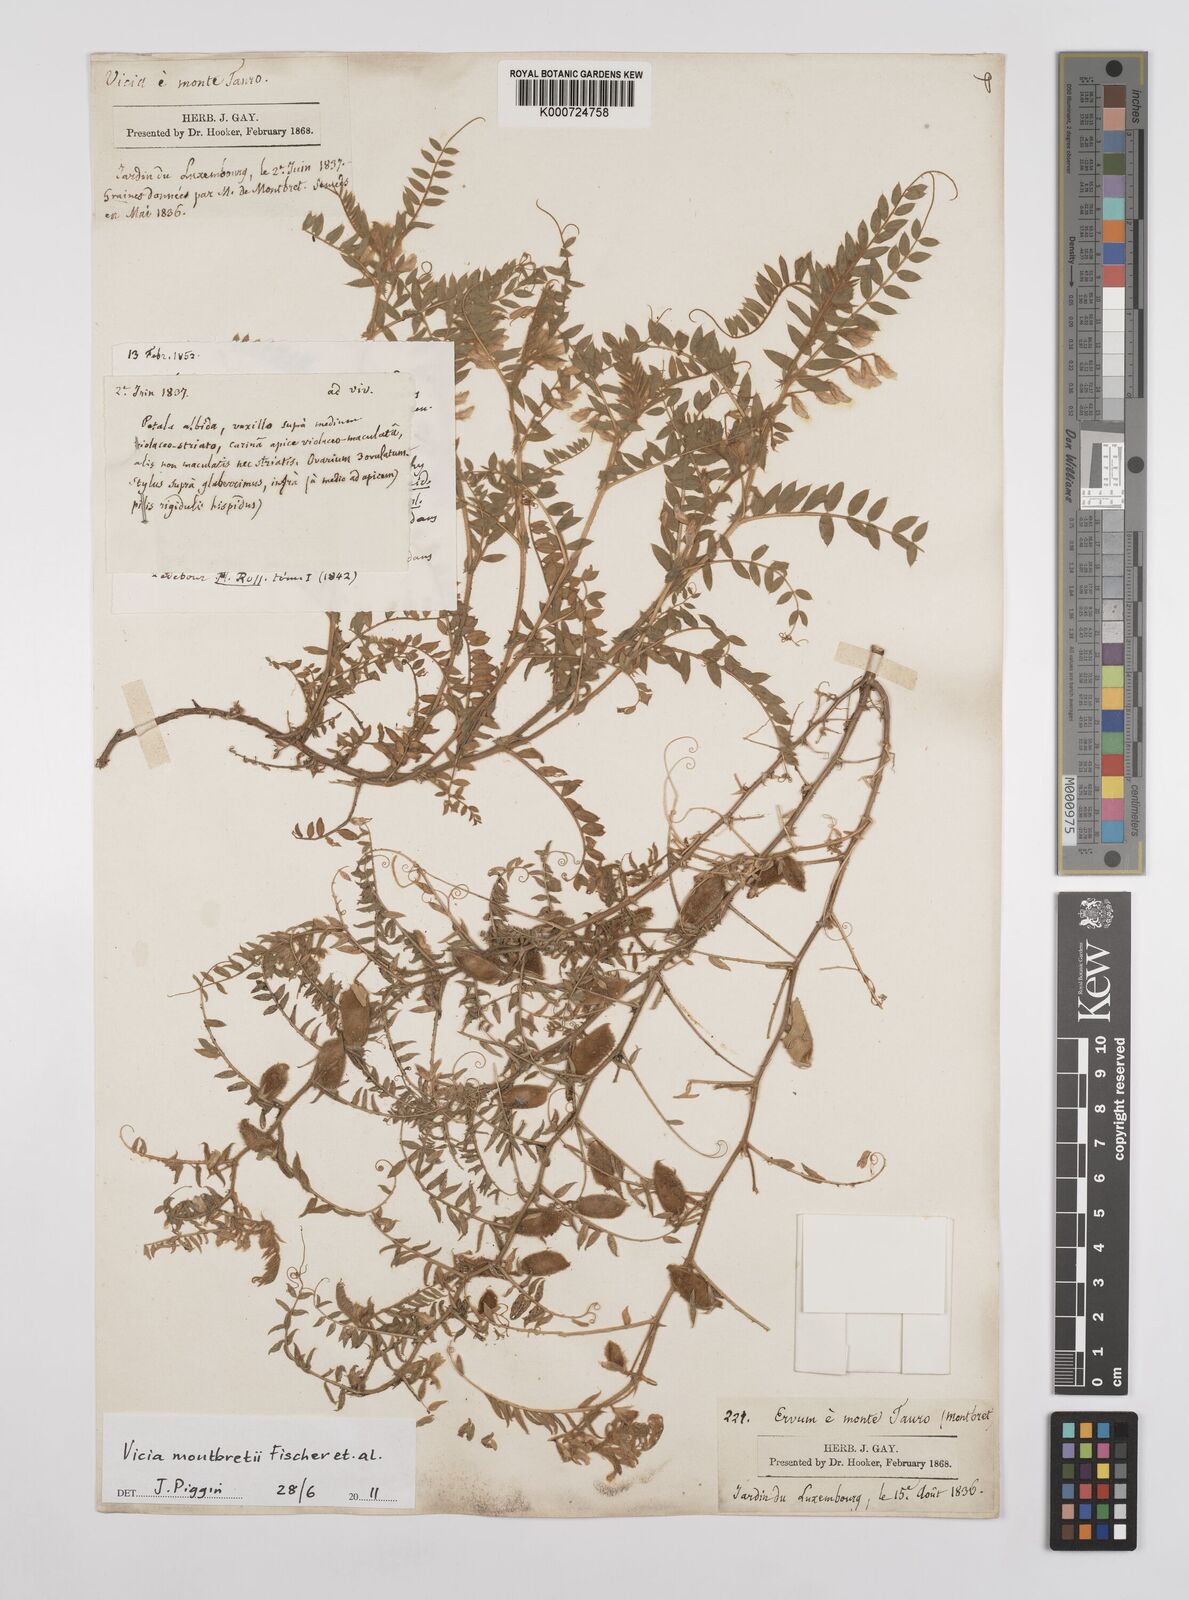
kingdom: Plantae
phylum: Tracheophyta
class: Magnoliopsida
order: Fabales
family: Fabaceae
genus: Vicia
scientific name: Vicia montbretii
